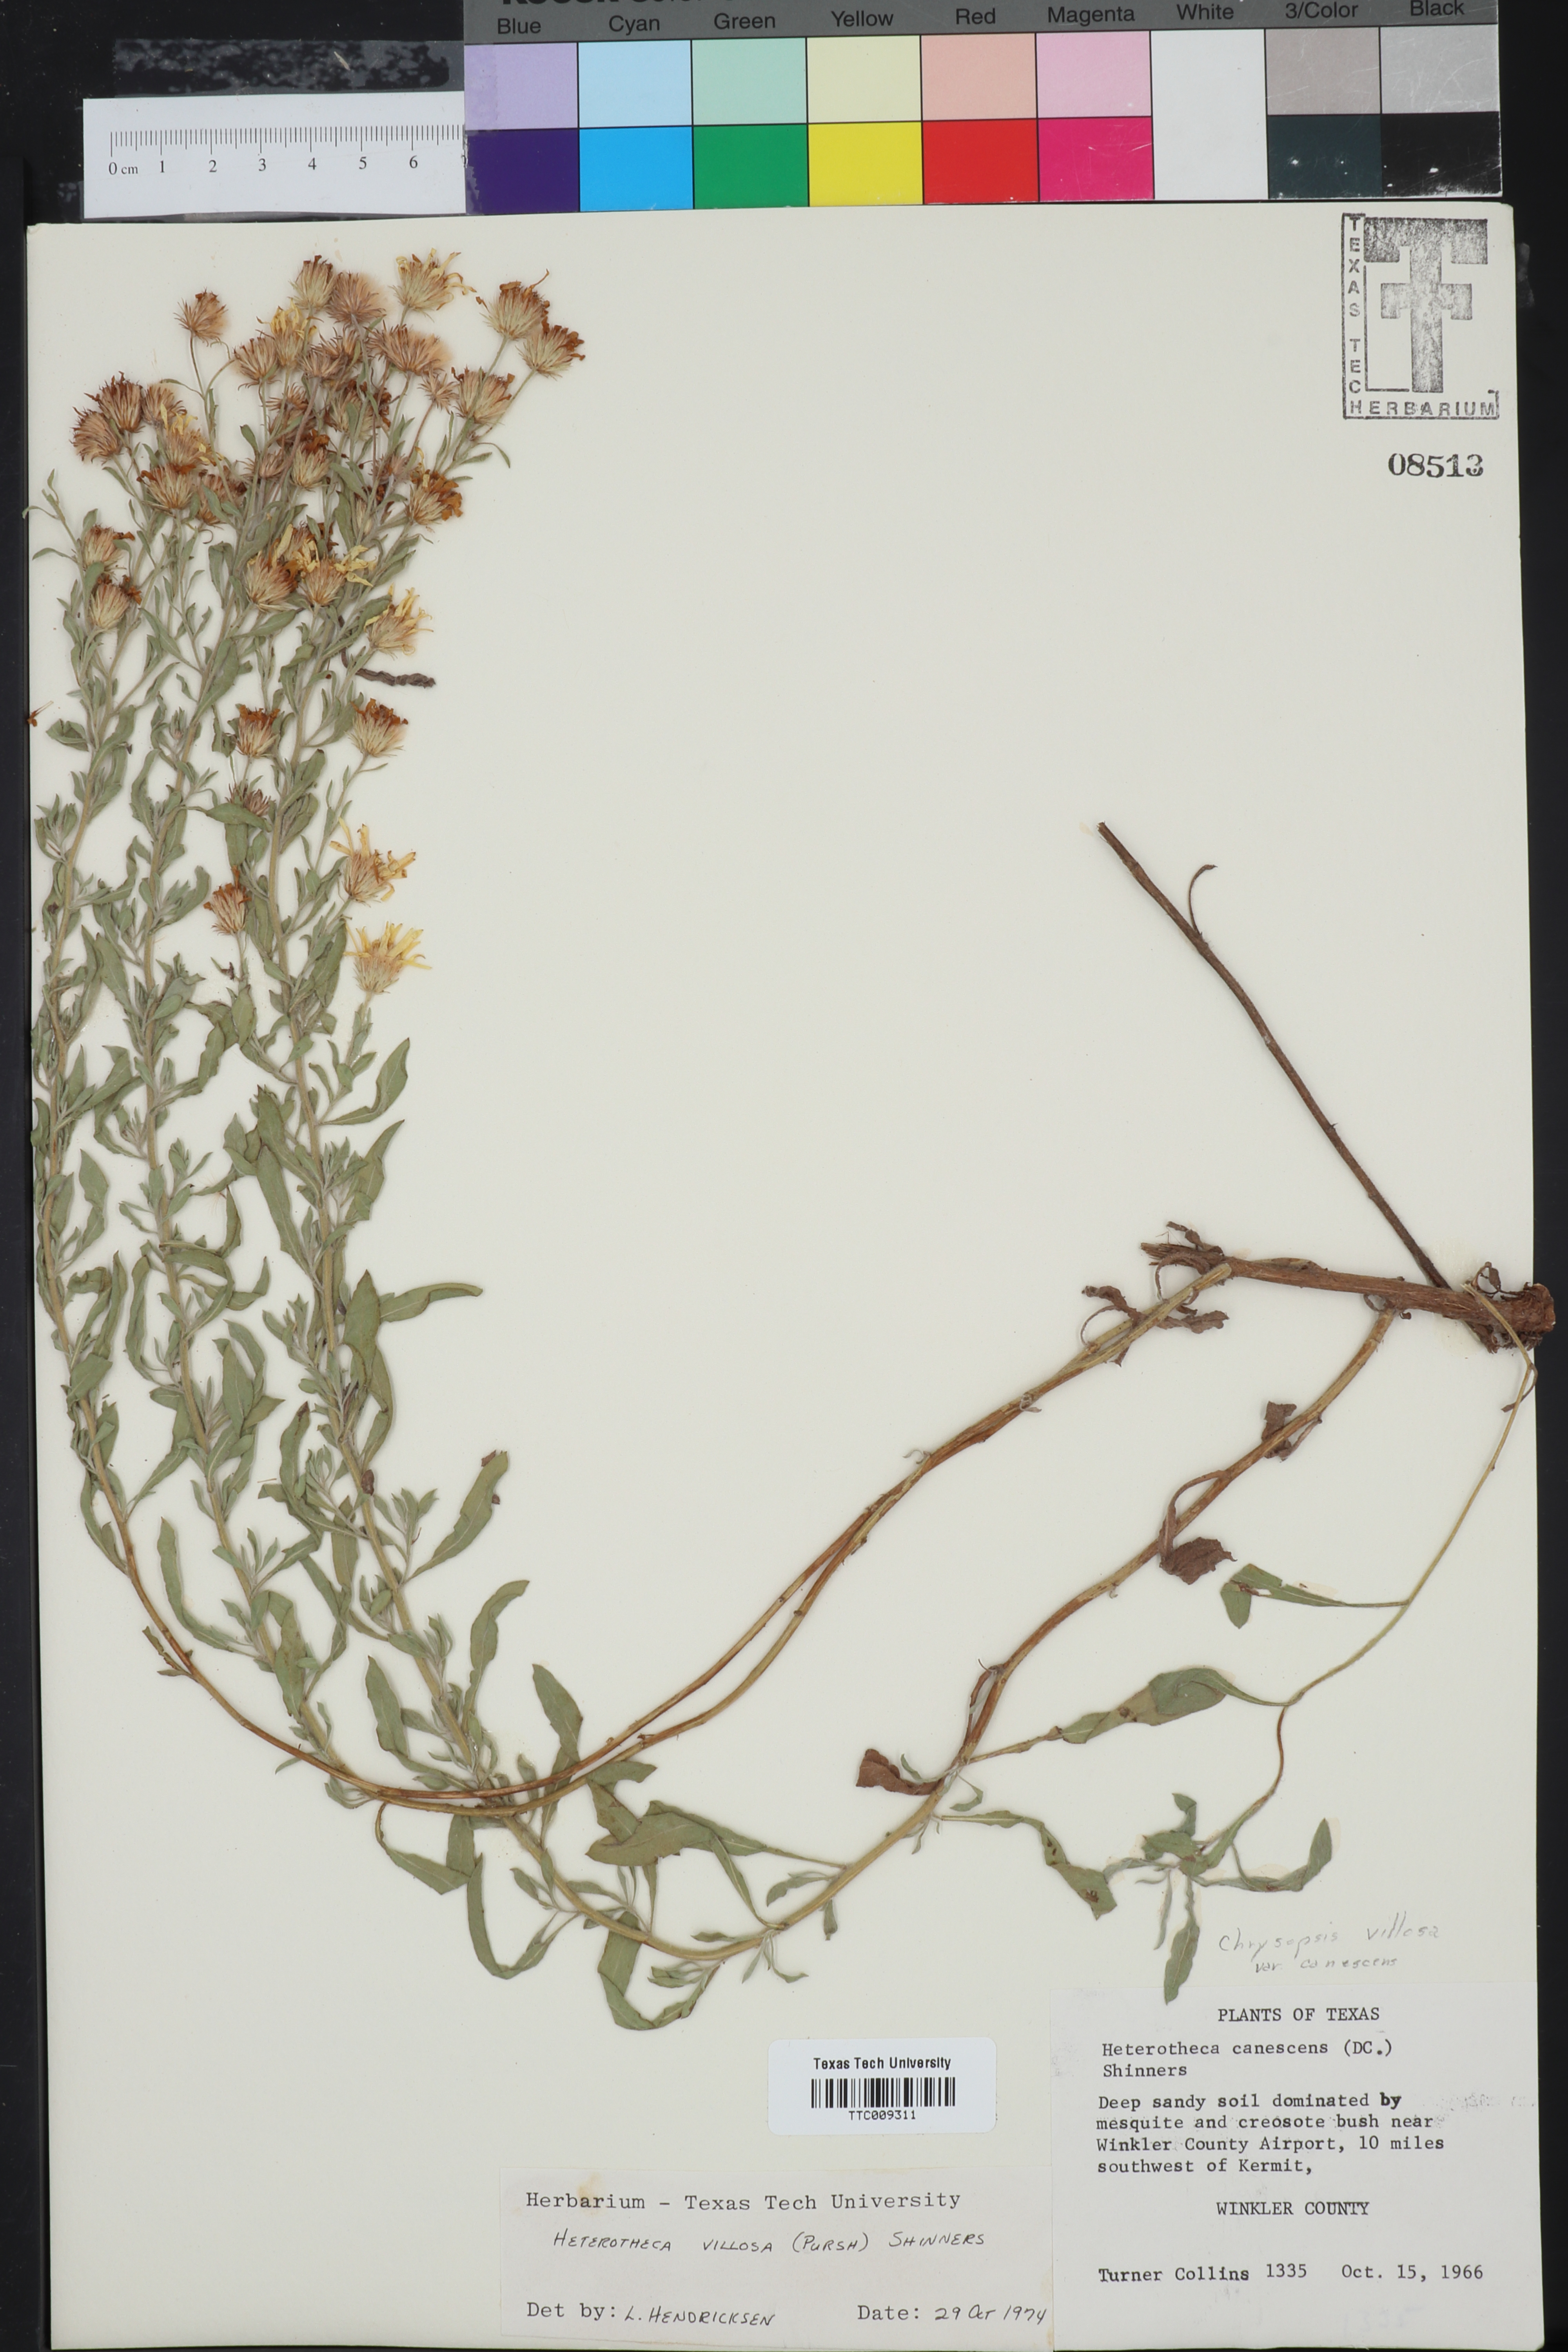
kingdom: Plantae
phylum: Tracheophyta
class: Magnoliopsida
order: Asterales
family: Asteraceae
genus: Heterotheca
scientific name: Heterotheca villosa
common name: Hairy false goldenaster
